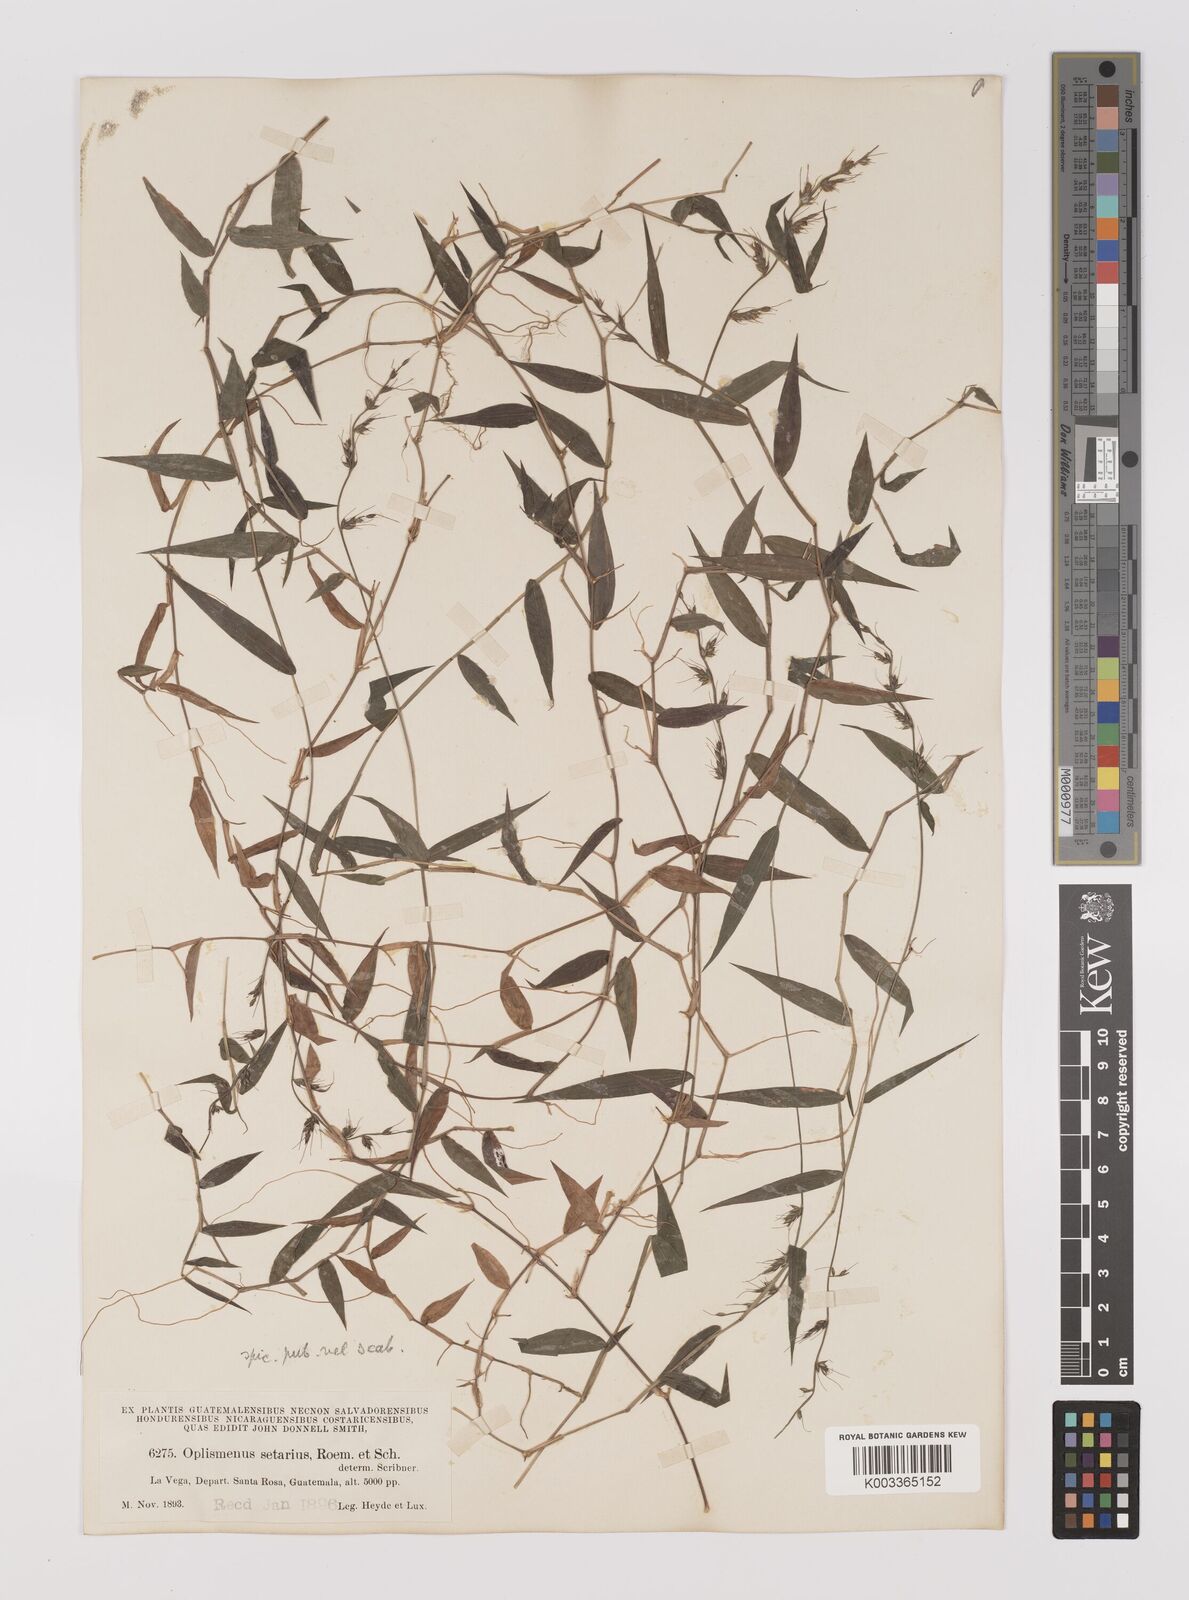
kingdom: Plantae
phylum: Tracheophyta
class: Liliopsida
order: Poales
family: Poaceae
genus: Oplismenus
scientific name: Oplismenus hirtellus
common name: Basketgrass
